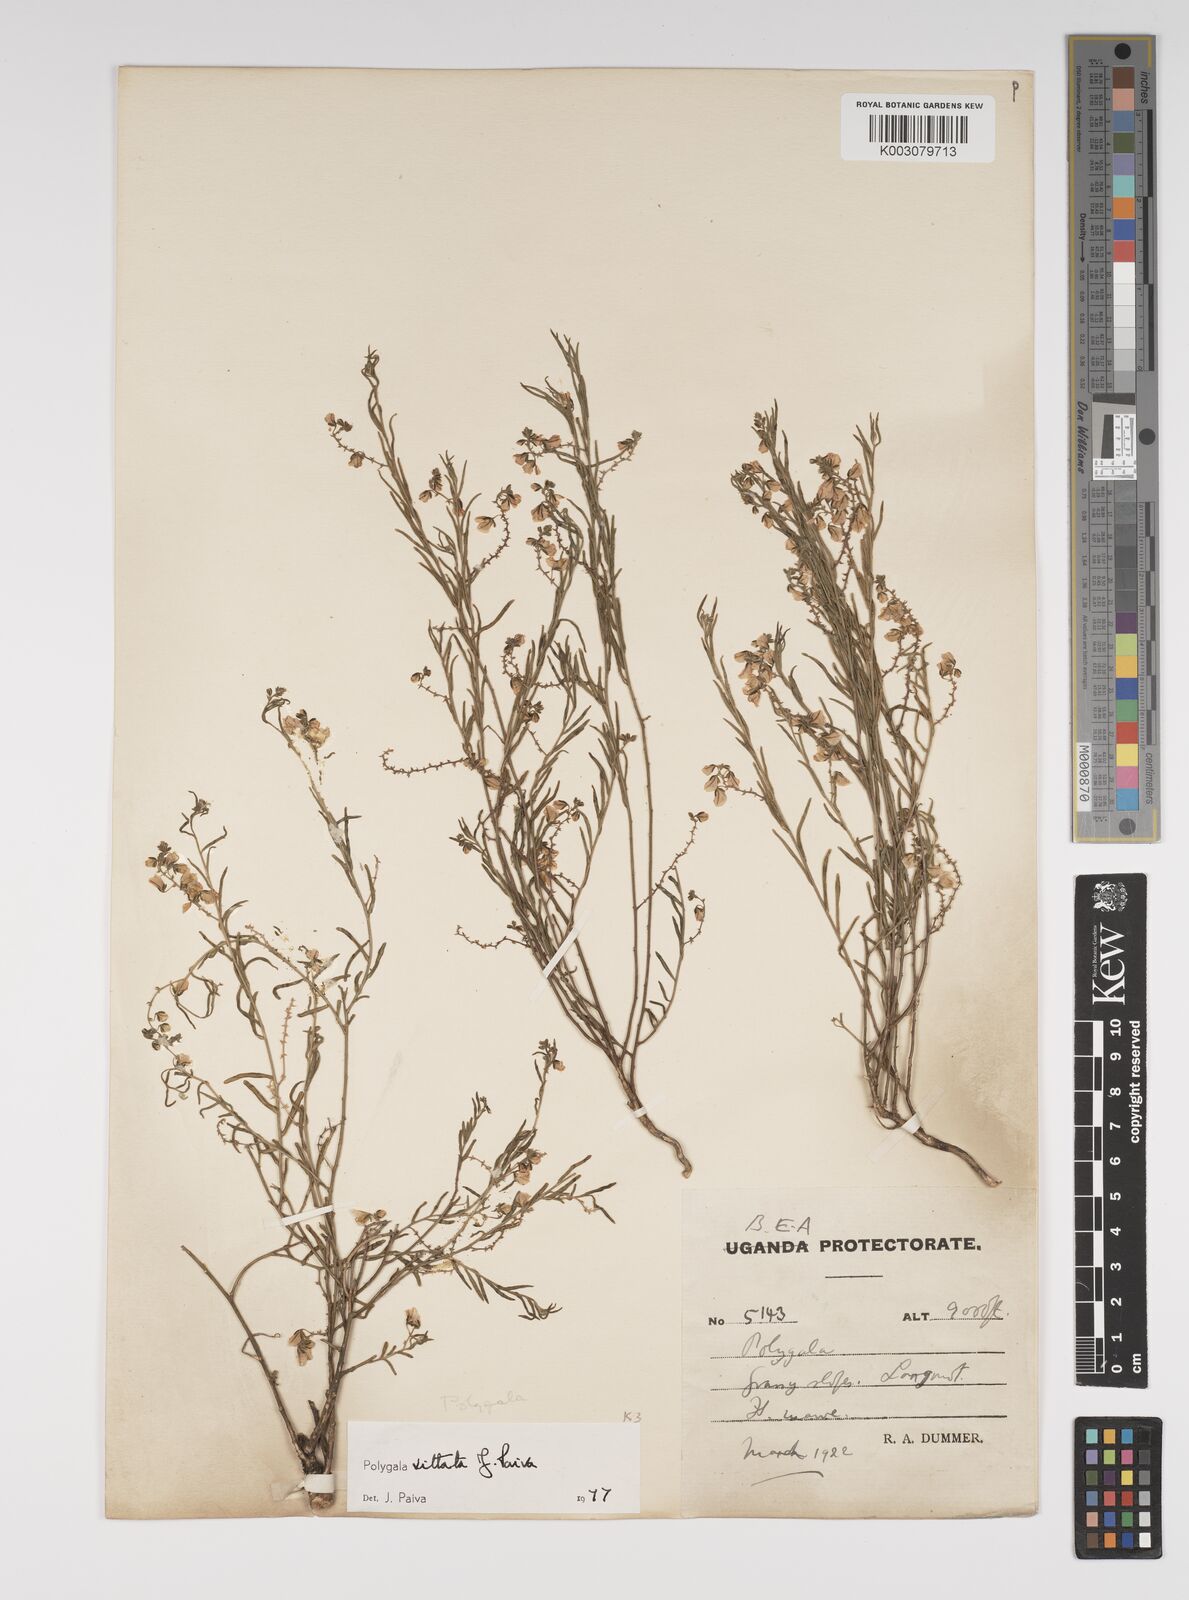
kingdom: Plantae
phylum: Tracheophyta
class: Magnoliopsida
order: Fabales
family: Polygalaceae
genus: Polygala
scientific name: Polygala vittata
